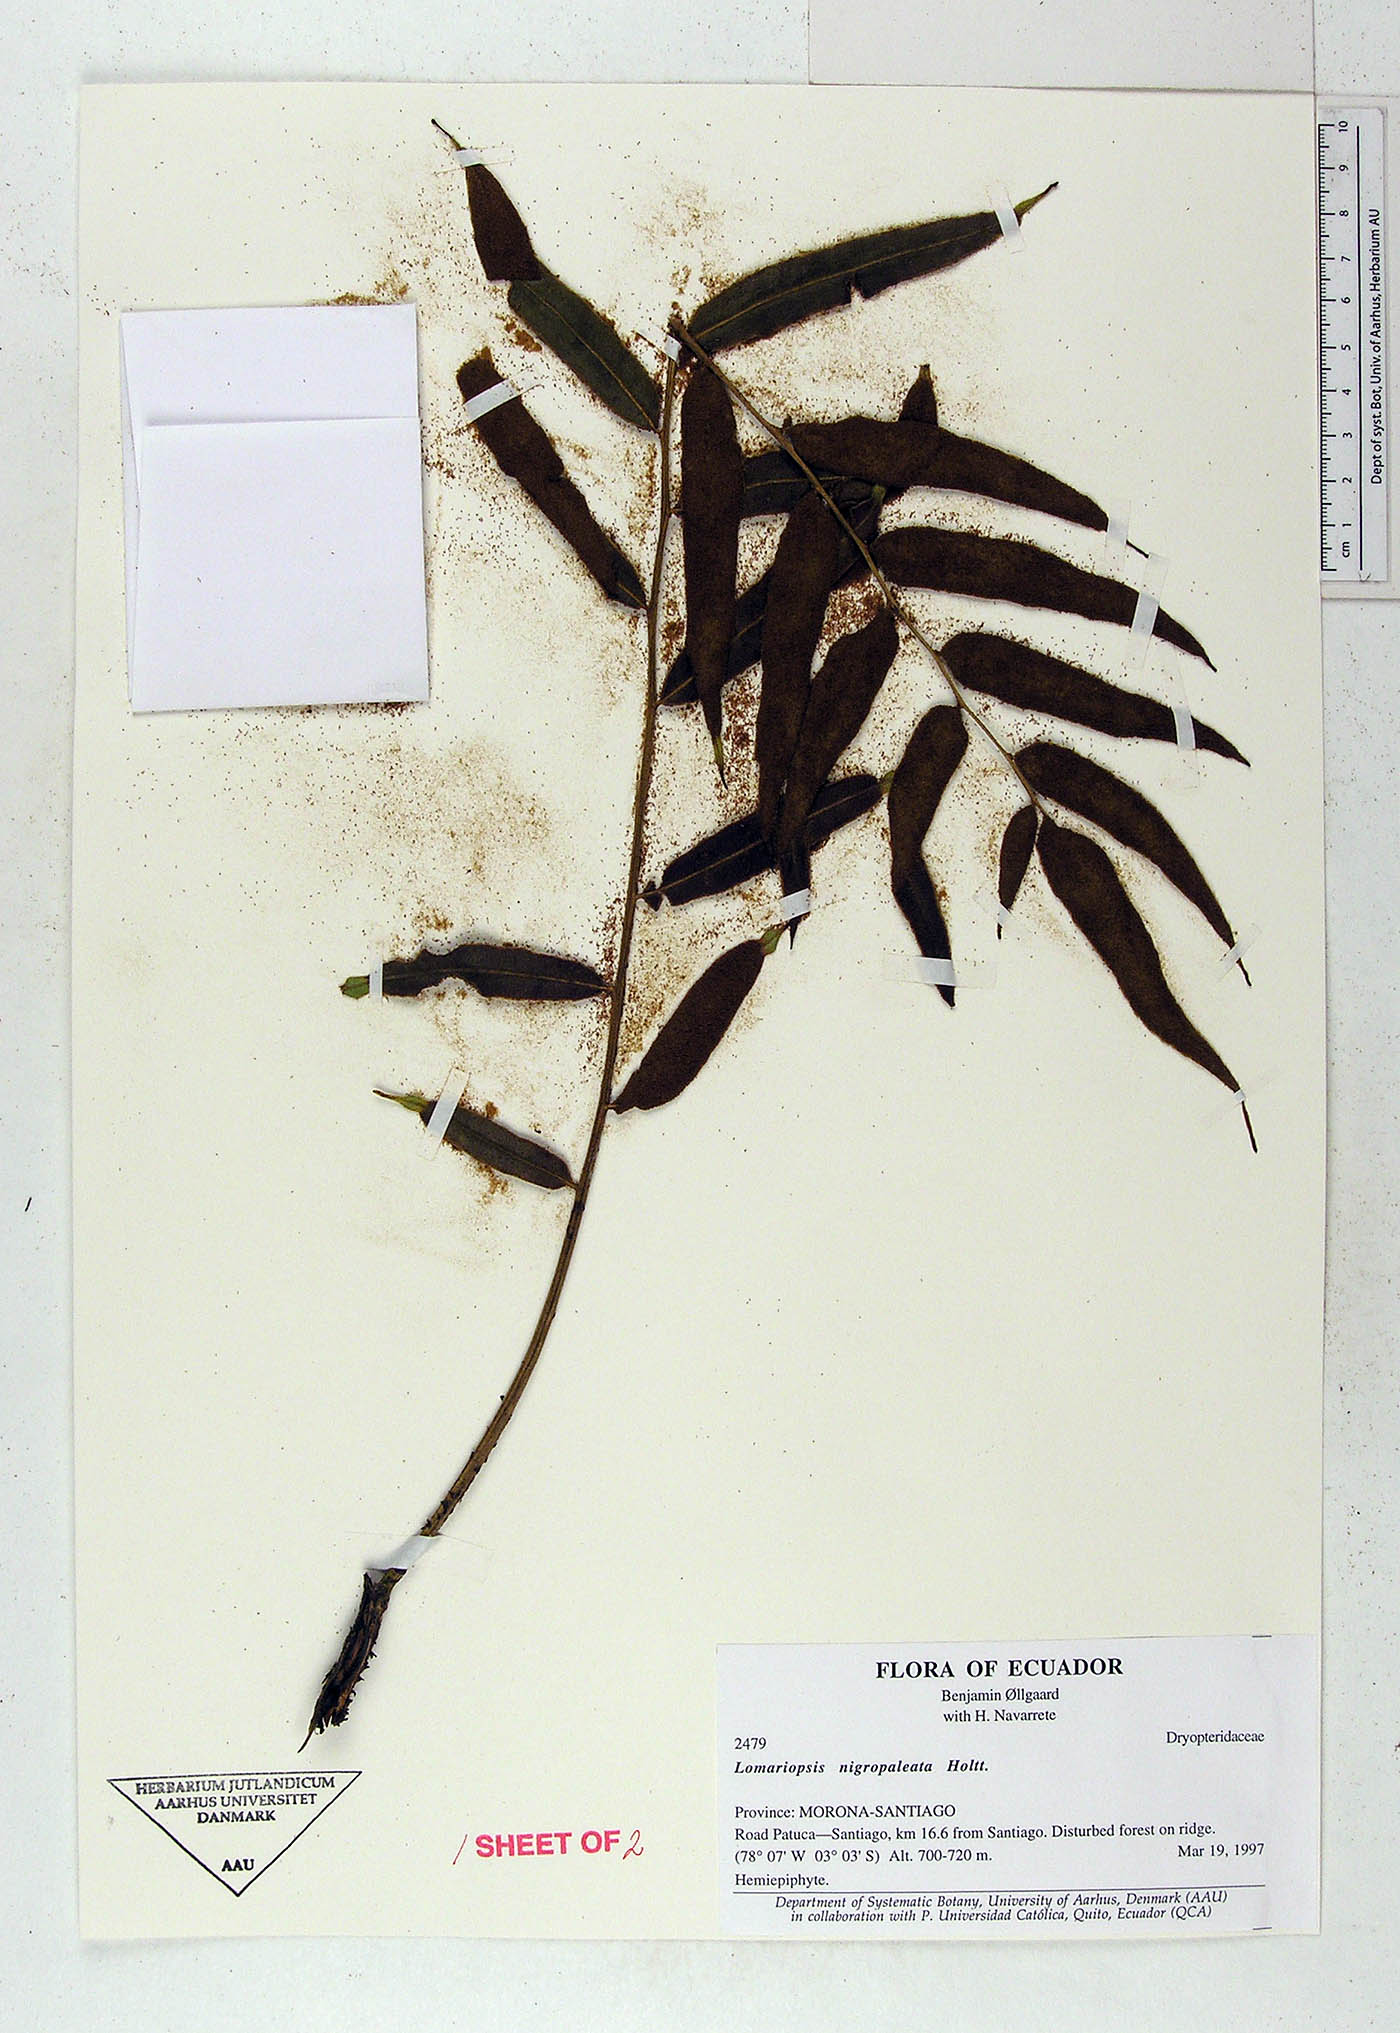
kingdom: Plantae
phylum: Tracheophyta
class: Polypodiopsida
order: Polypodiales
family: Lomariopsidaceae
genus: Lomariopsis
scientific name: Lomariopsis
